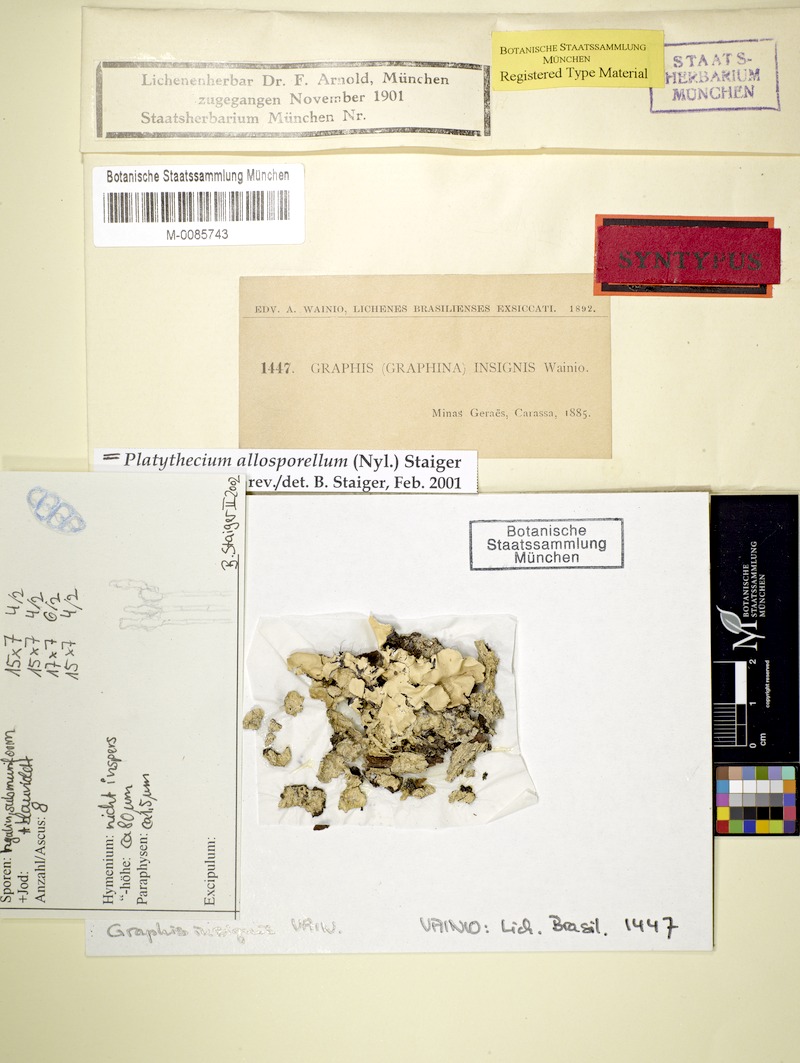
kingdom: Fungi
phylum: Ascomycota
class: Lecanoromycetes
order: Ostropales
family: Graphidaceae
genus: Platythecium
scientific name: Platythecium allosporellum
